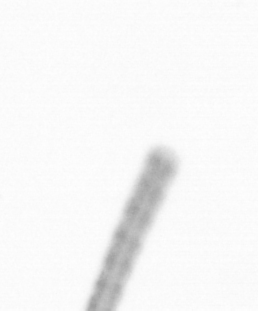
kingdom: Chromista
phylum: Ochrophyta
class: Bacillariophyceae
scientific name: Bacillariophyceae
